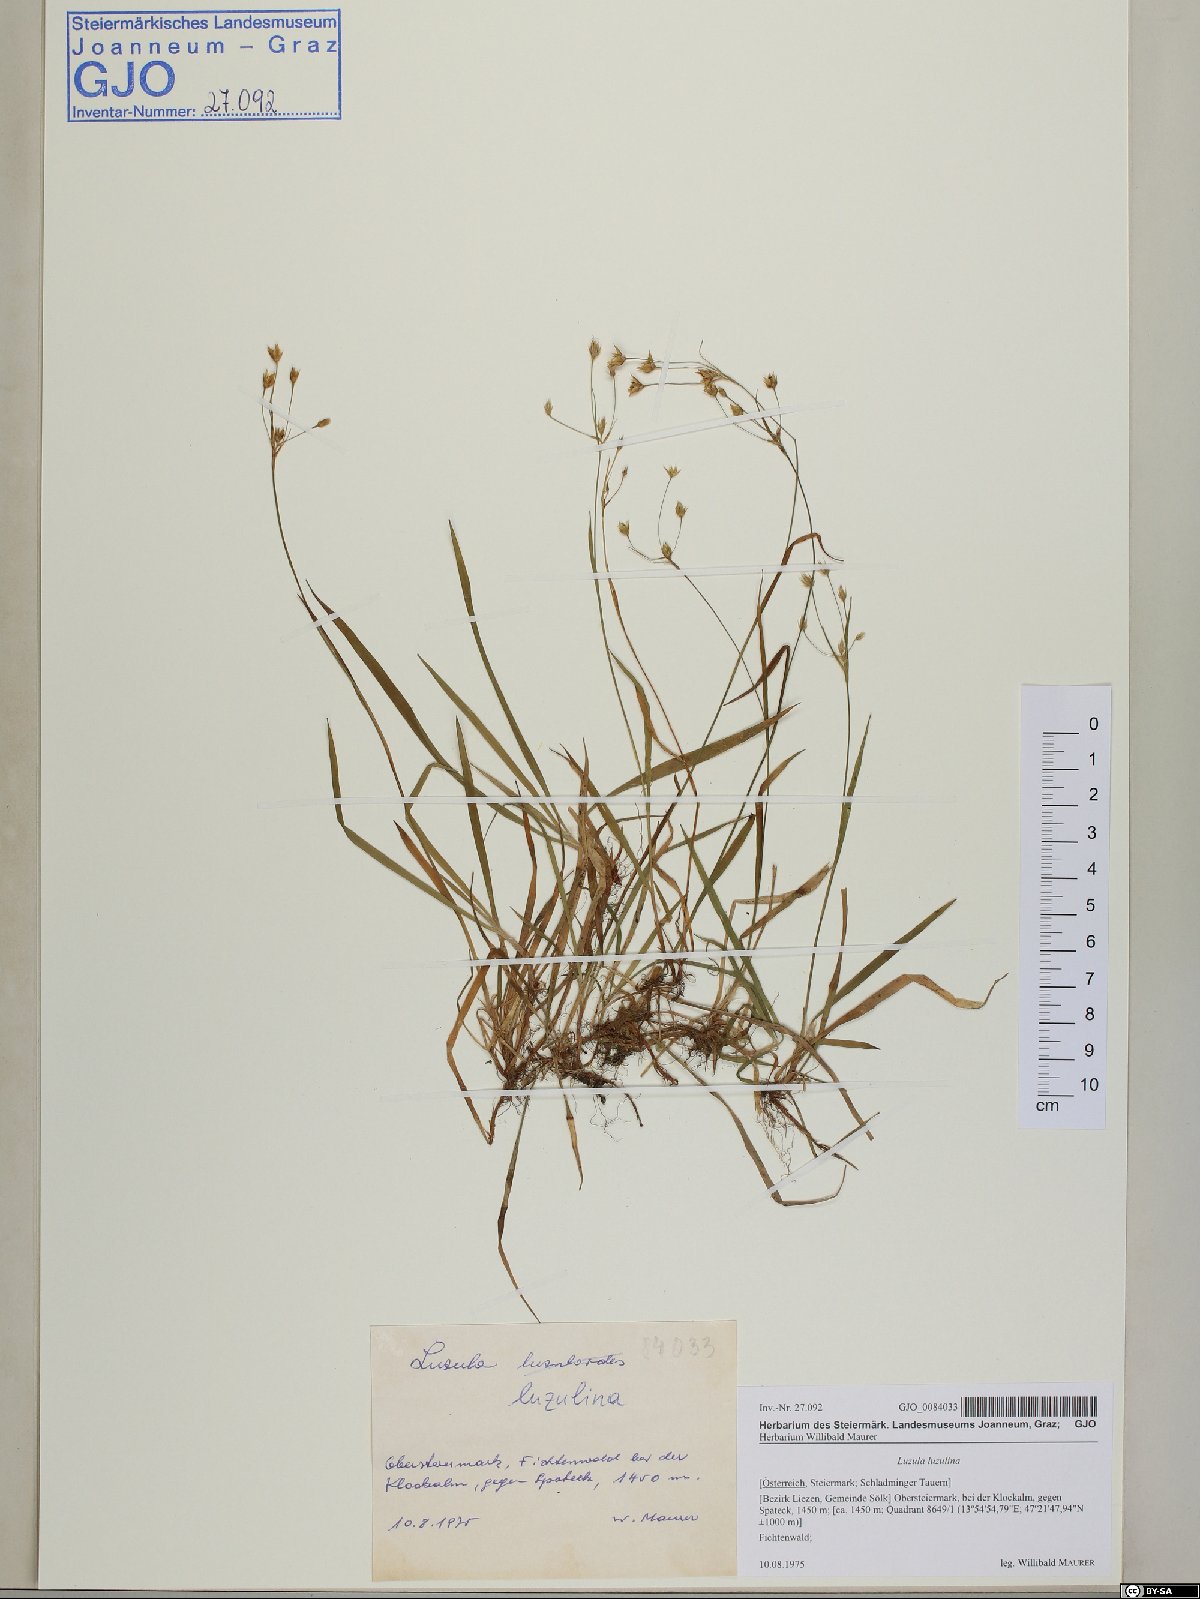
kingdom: Plantae
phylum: Tracheophyta
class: Liliopsida
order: Poales
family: Juncaceae
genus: Luzula
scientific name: Luzula luzulina
